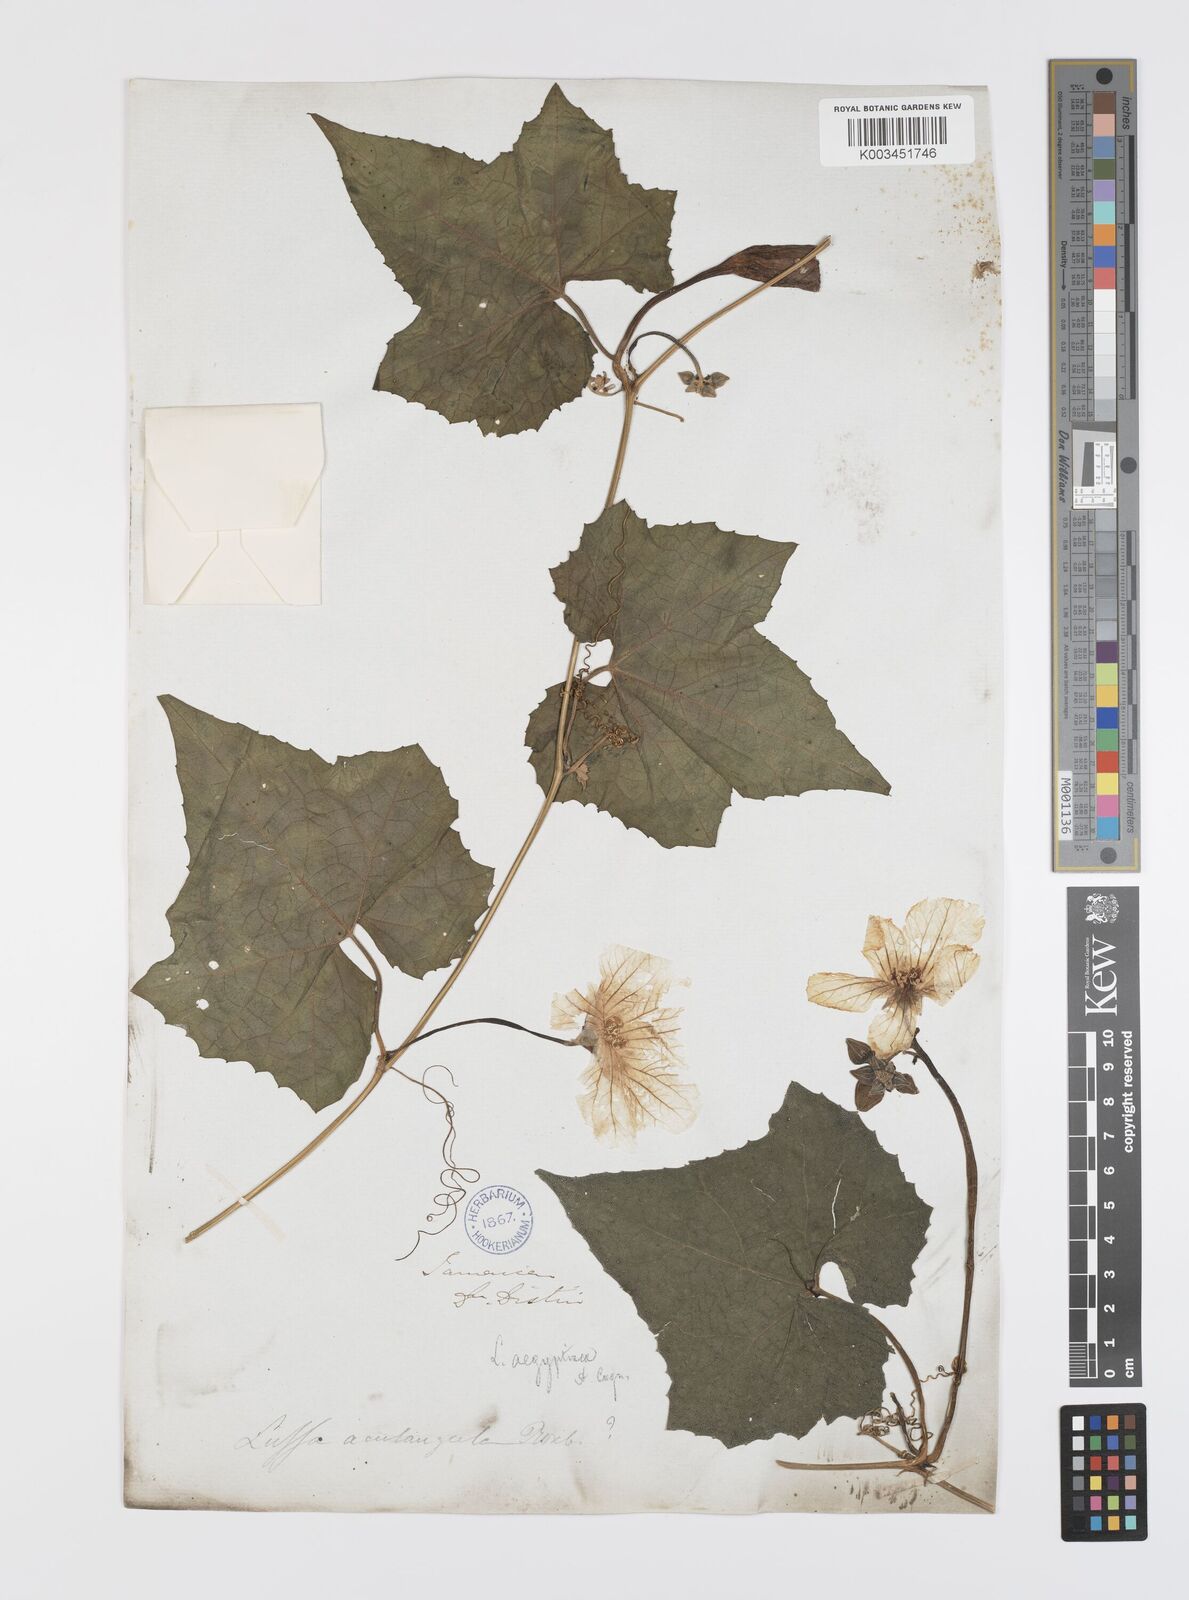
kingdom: Plantae
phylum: Tracheophyta
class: Magnoliopsida
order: Cucurbitales
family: Cucurbitaceae
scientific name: Cucurbitaceae
